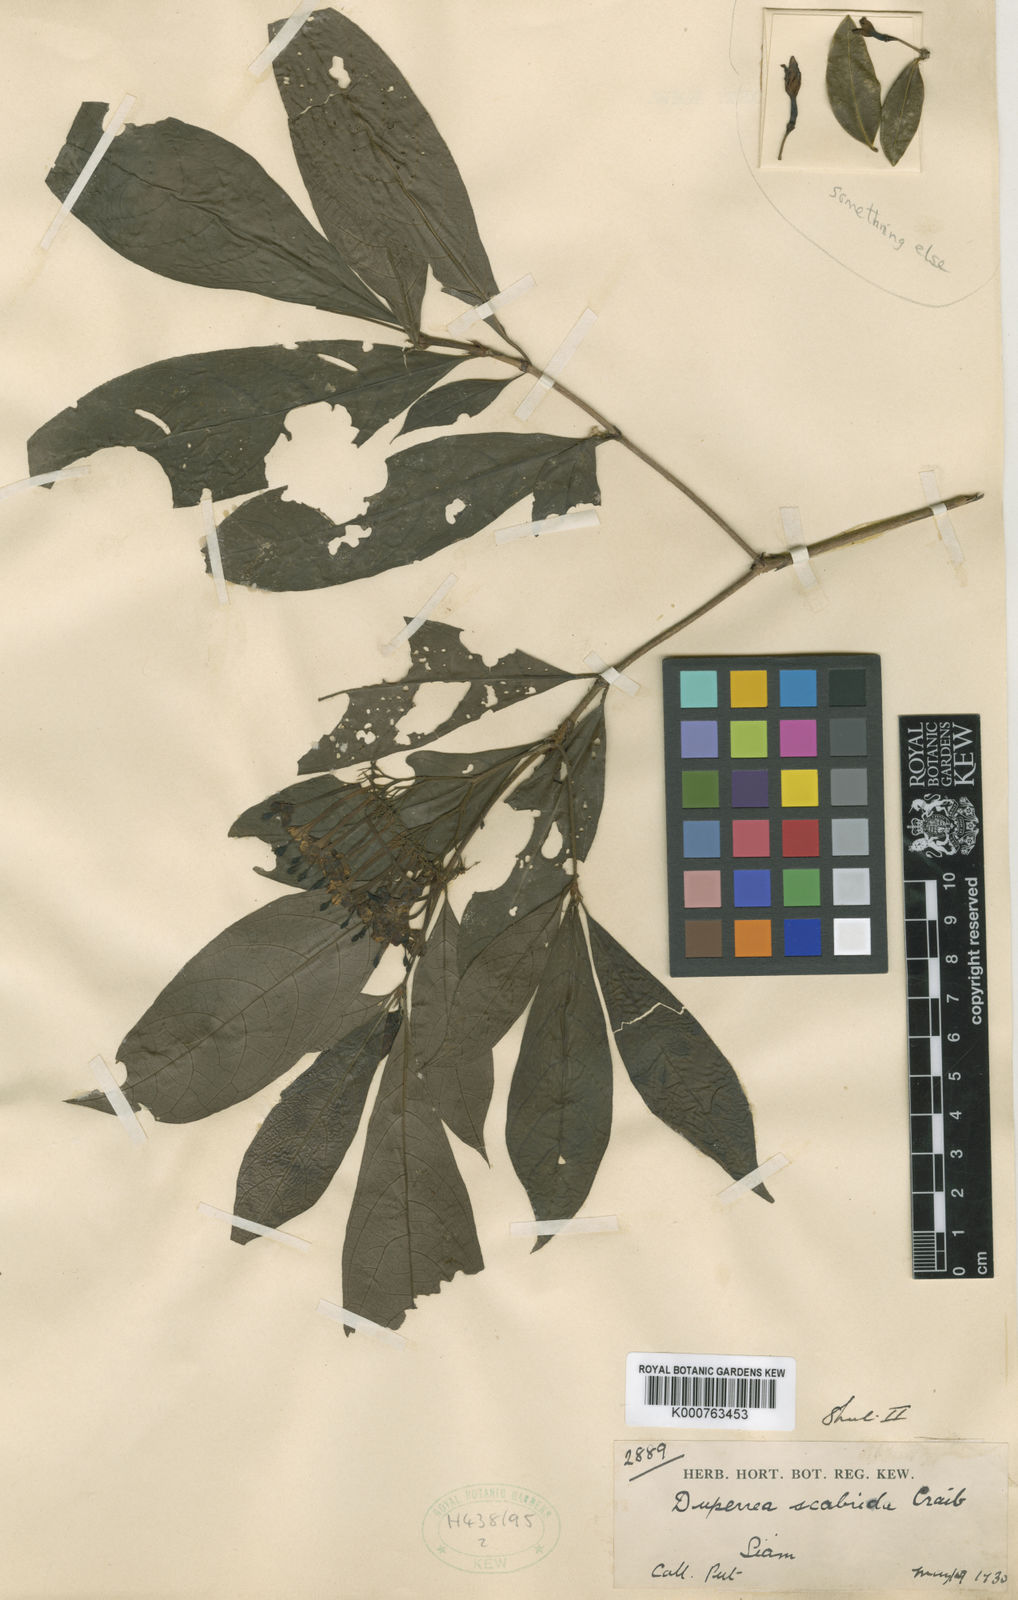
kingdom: Plantae
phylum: Tracheophyta
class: Magnoliopsida
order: Gentianales
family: Rubiaceae
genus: Duperrea
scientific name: Duperrea pavettifolia
